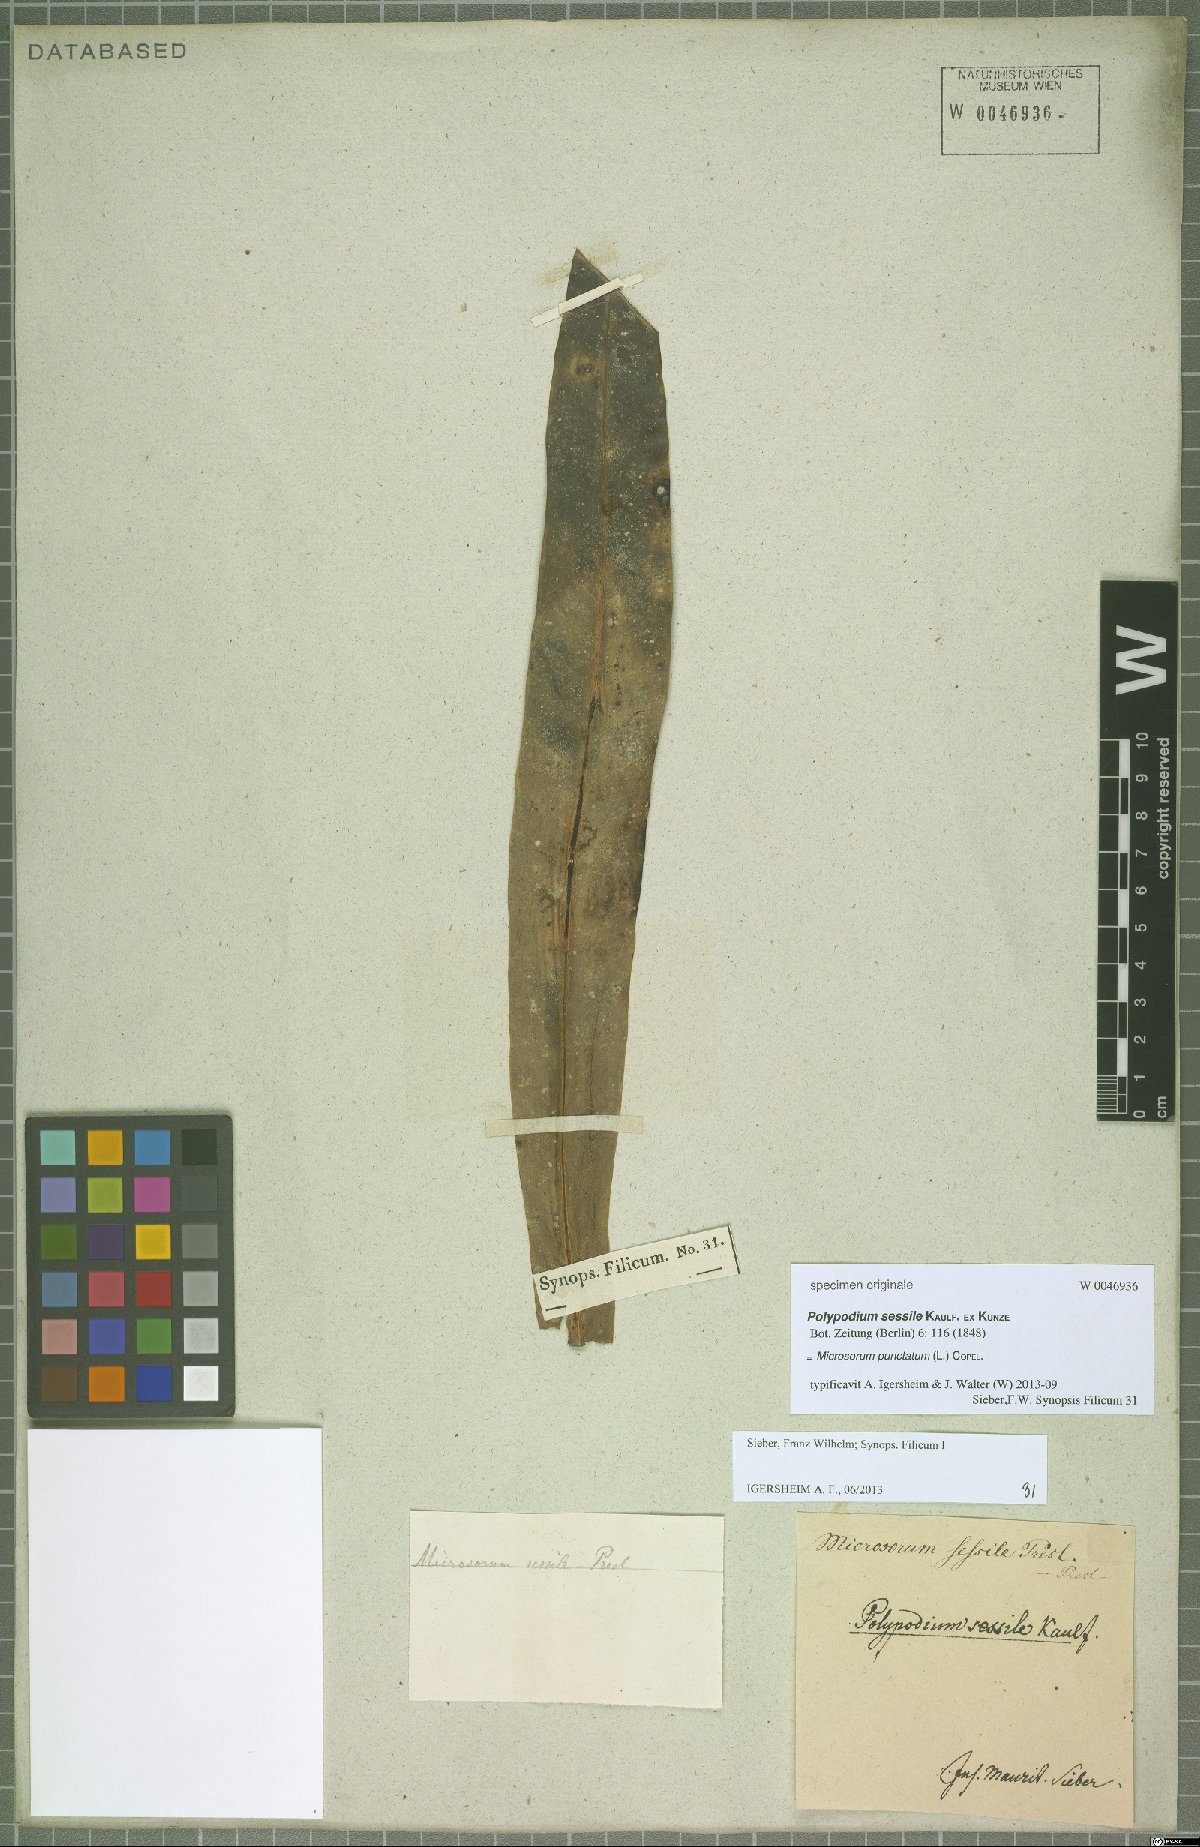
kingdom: Plantae
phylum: Tracheophyta
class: Polypodiopsida
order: Polypodiales
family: Polypodiaceae
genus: Microsorum
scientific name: Microsorum punctatum
